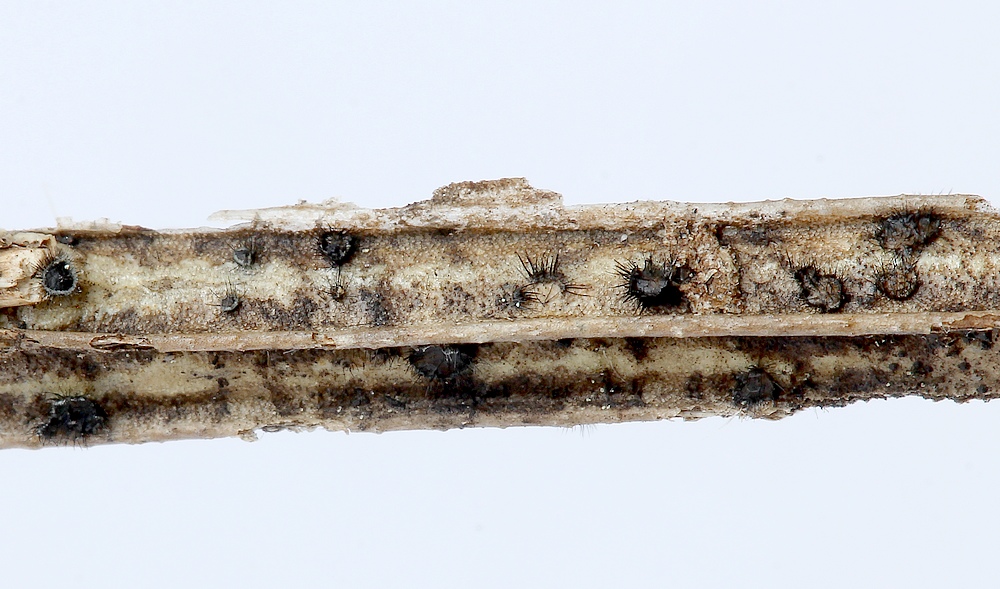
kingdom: Fungi
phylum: Ascomycota
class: Sordariomycetes
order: Phomatosporales
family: Phomatosporaceae
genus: Phomatospora
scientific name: Phomatospora dinemasporium
